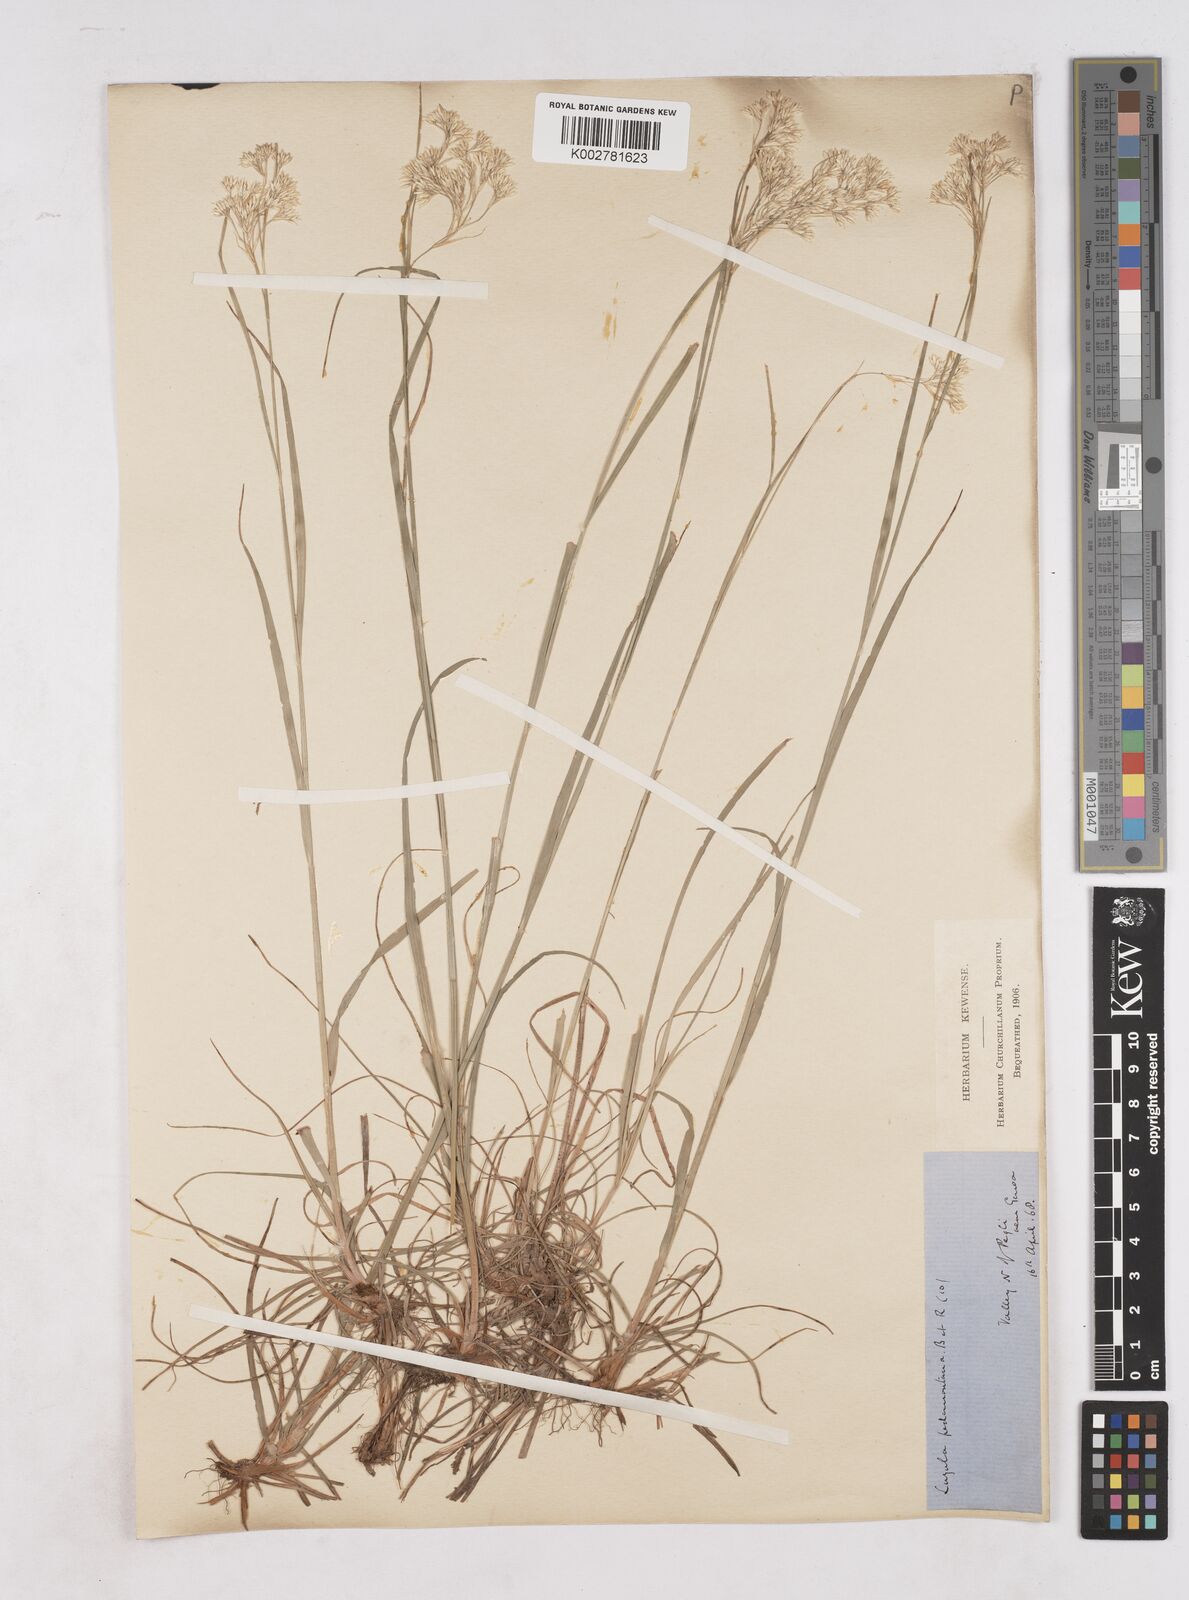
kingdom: Plantae
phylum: Tracheophyta
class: Liliopsida
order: Poales
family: Juncaceae
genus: Luzula
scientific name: Luzula pedemontana
